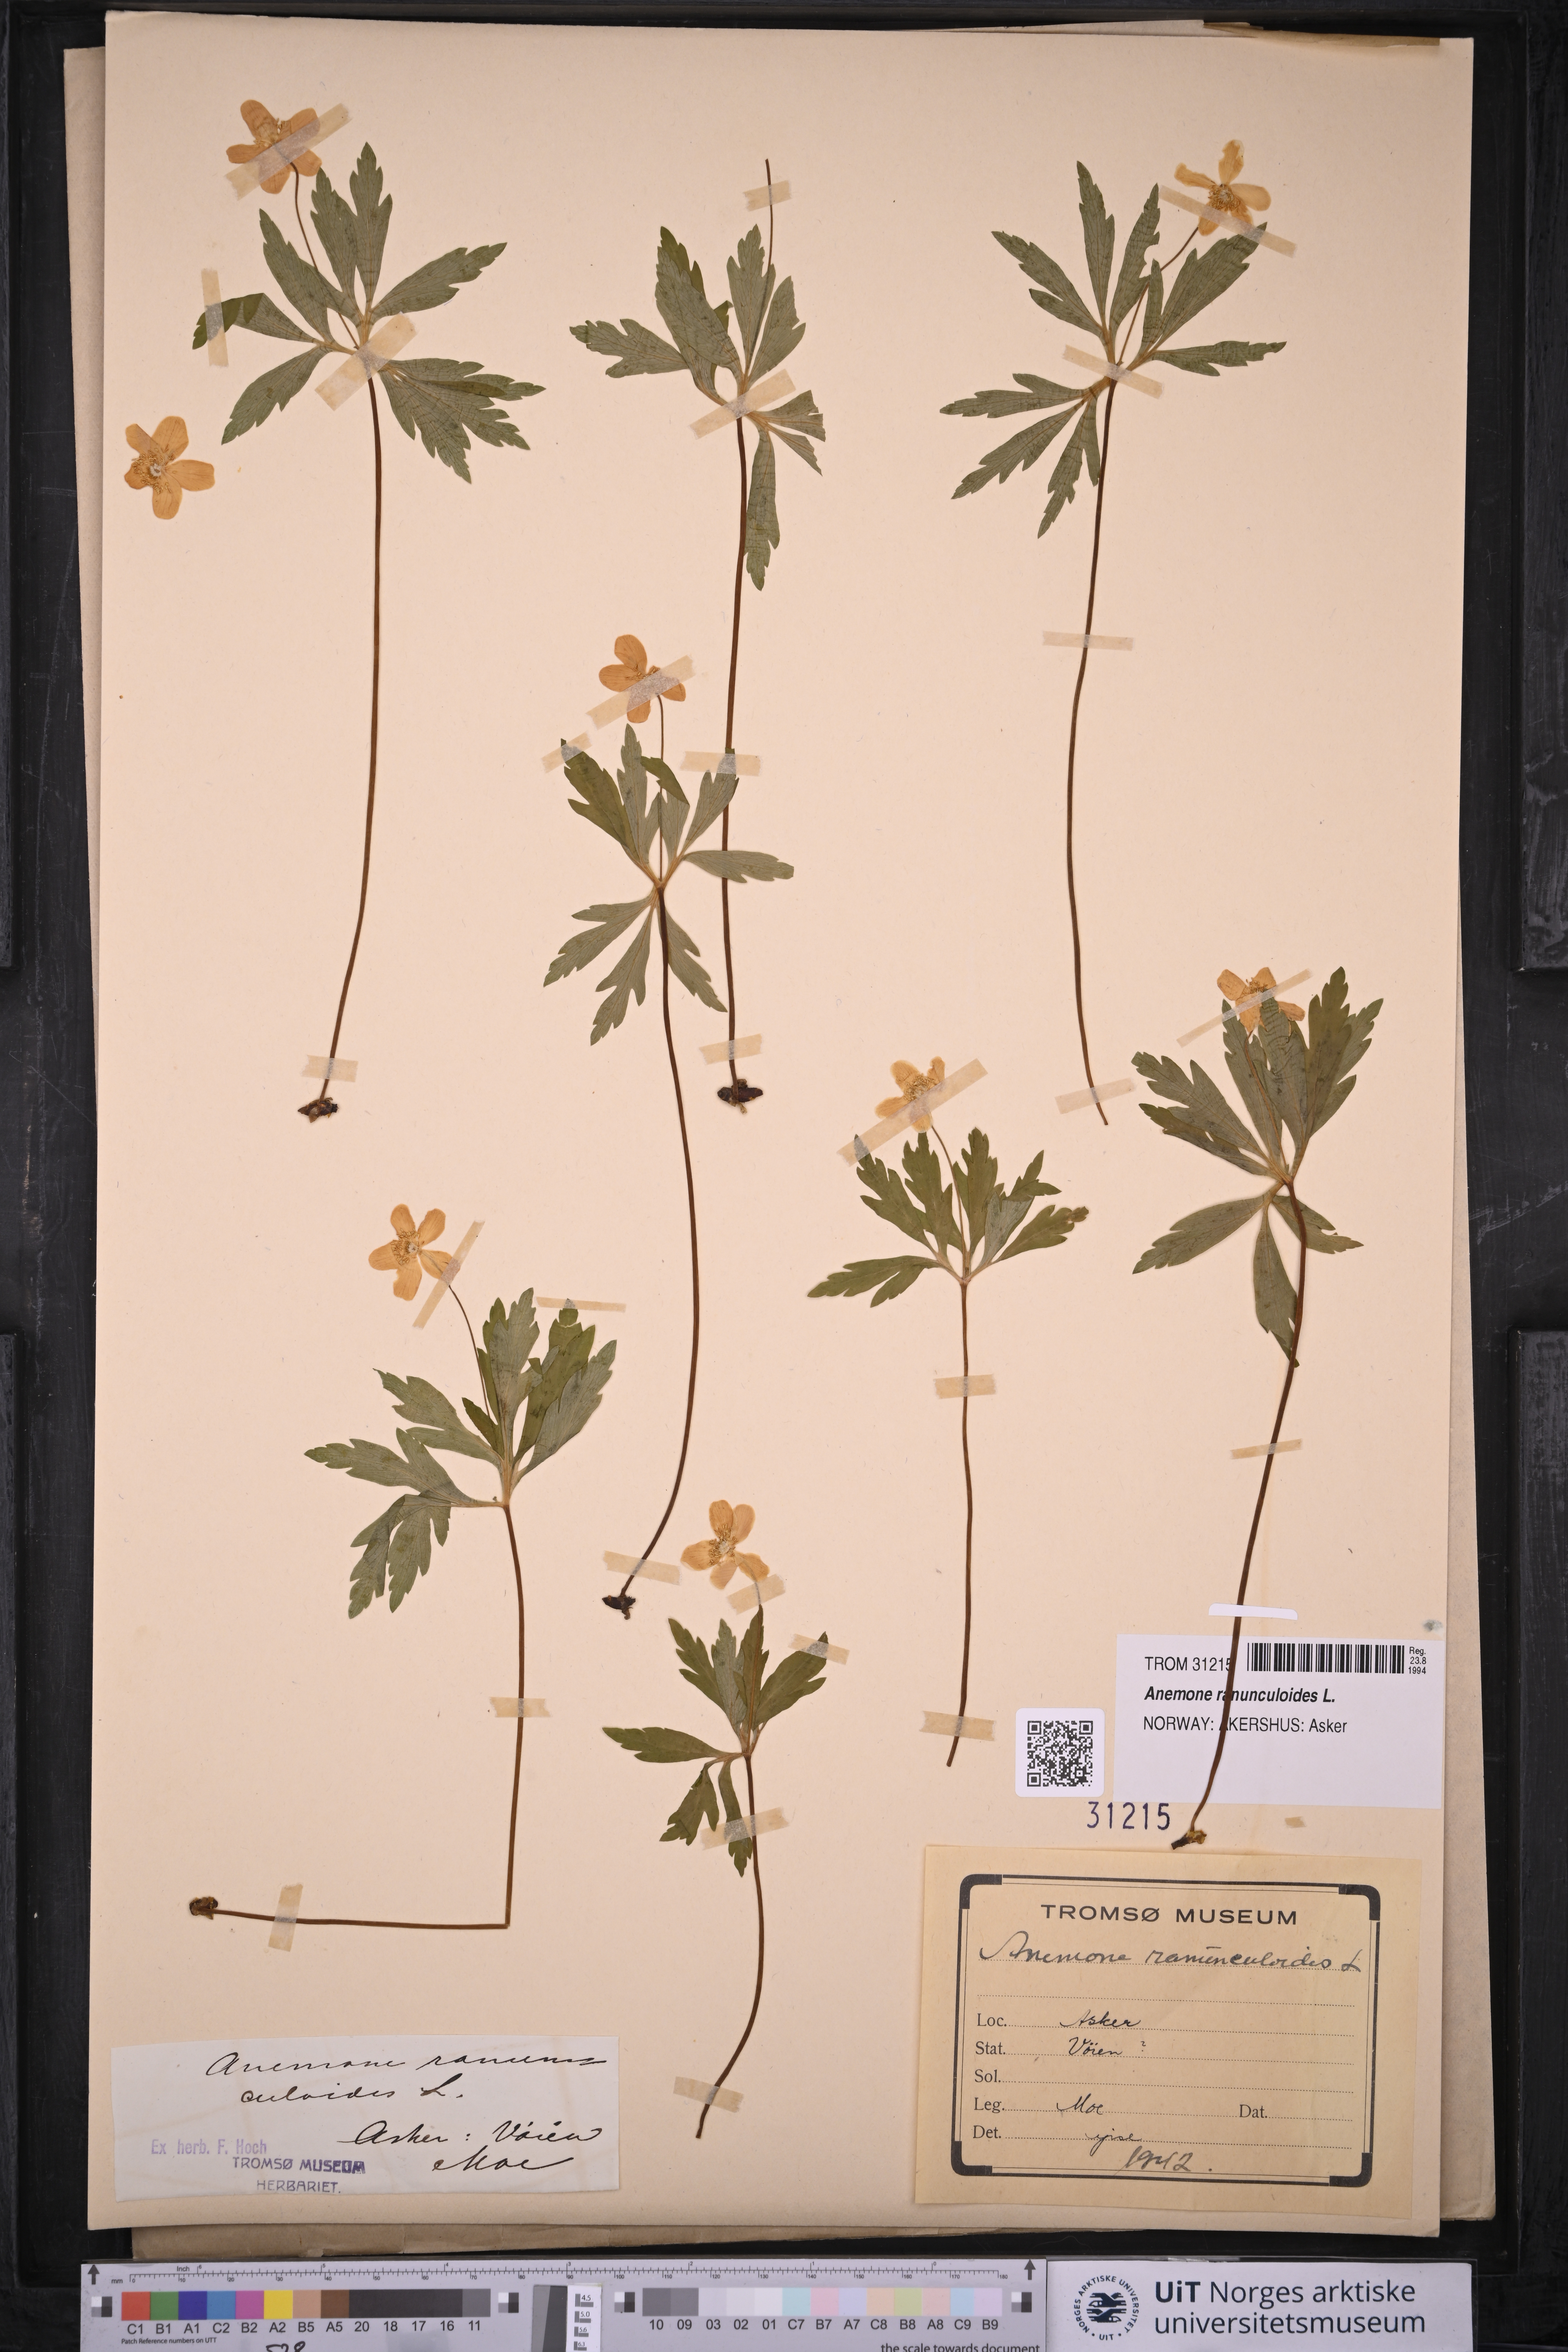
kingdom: Plantae
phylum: Tracheophyta
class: Magnoliopsida
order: Ranunculales
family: Ranunculaceae
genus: Anemone
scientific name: Anemone ranunculoides
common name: Yellow anemone
